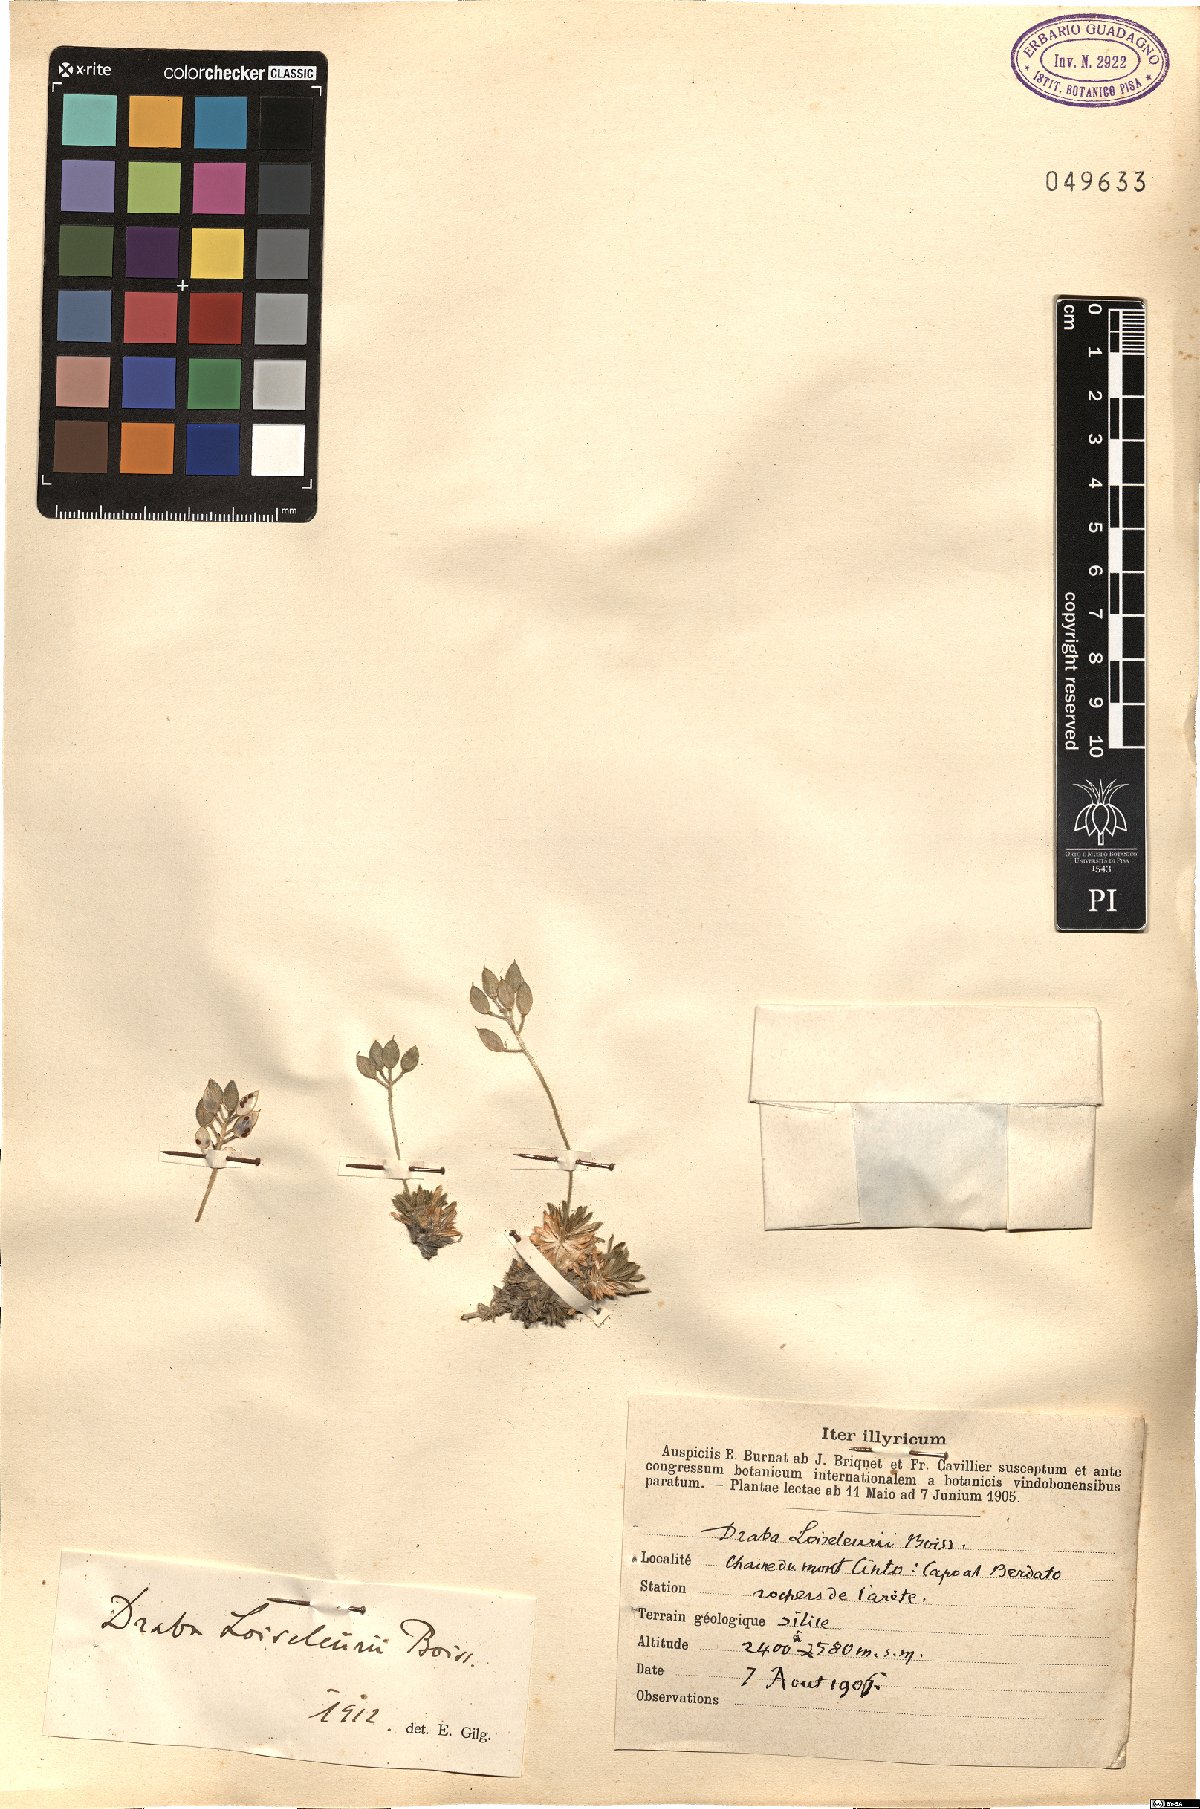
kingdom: Plantae
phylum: Tracheophyta
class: Magnoliopsida
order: Brassicales
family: Brassicaceae
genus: Draba
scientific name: Draba loiseleurii
